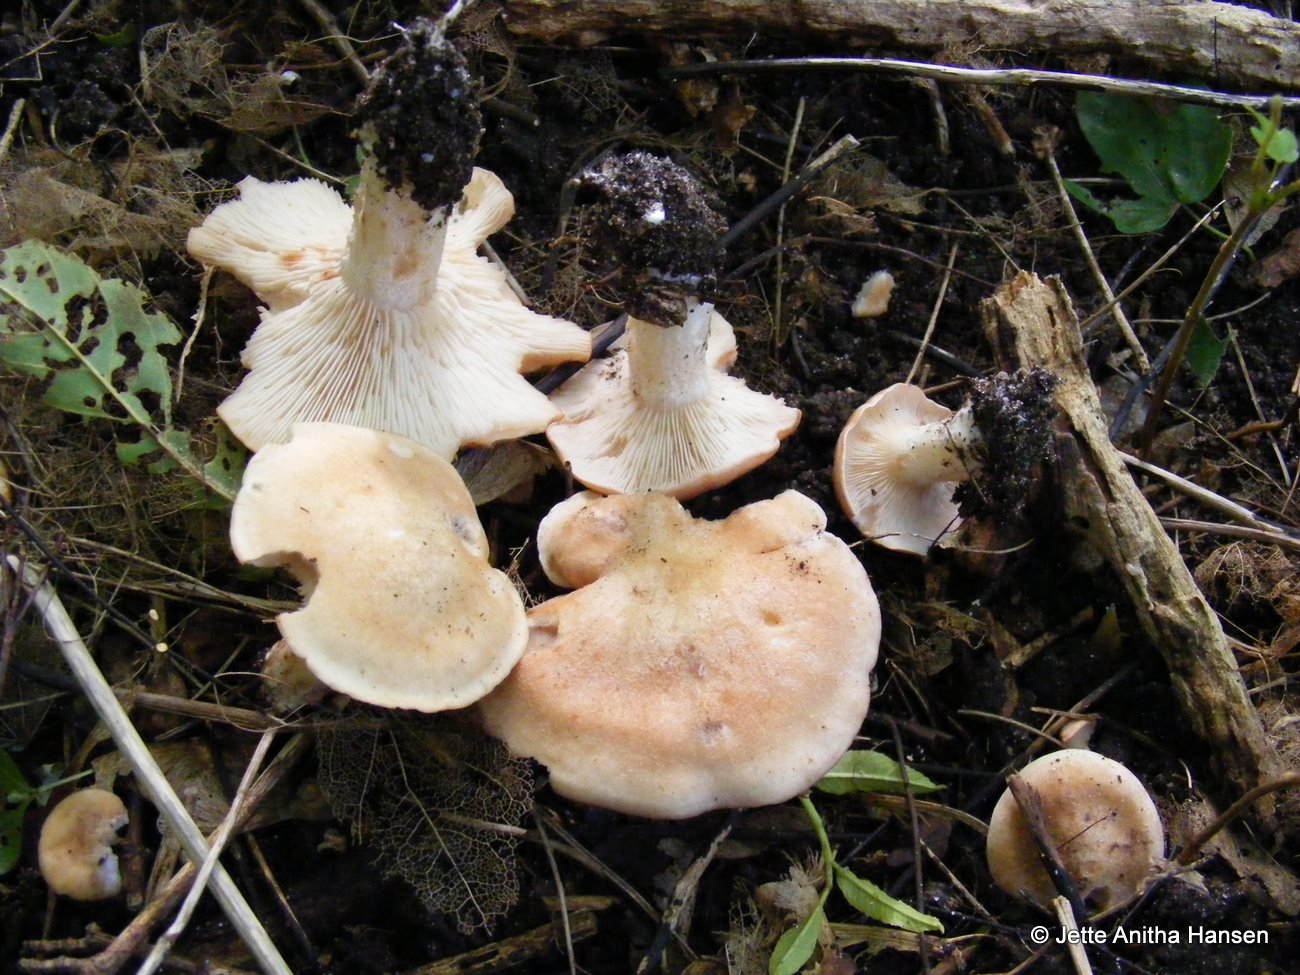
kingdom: Fungi
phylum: Basidiomycota
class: Agaricomycetes
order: Agaricales
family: Entolomataceae
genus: Clitopilus
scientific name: Clitopilus geminus
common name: kødfarvet troldhat
